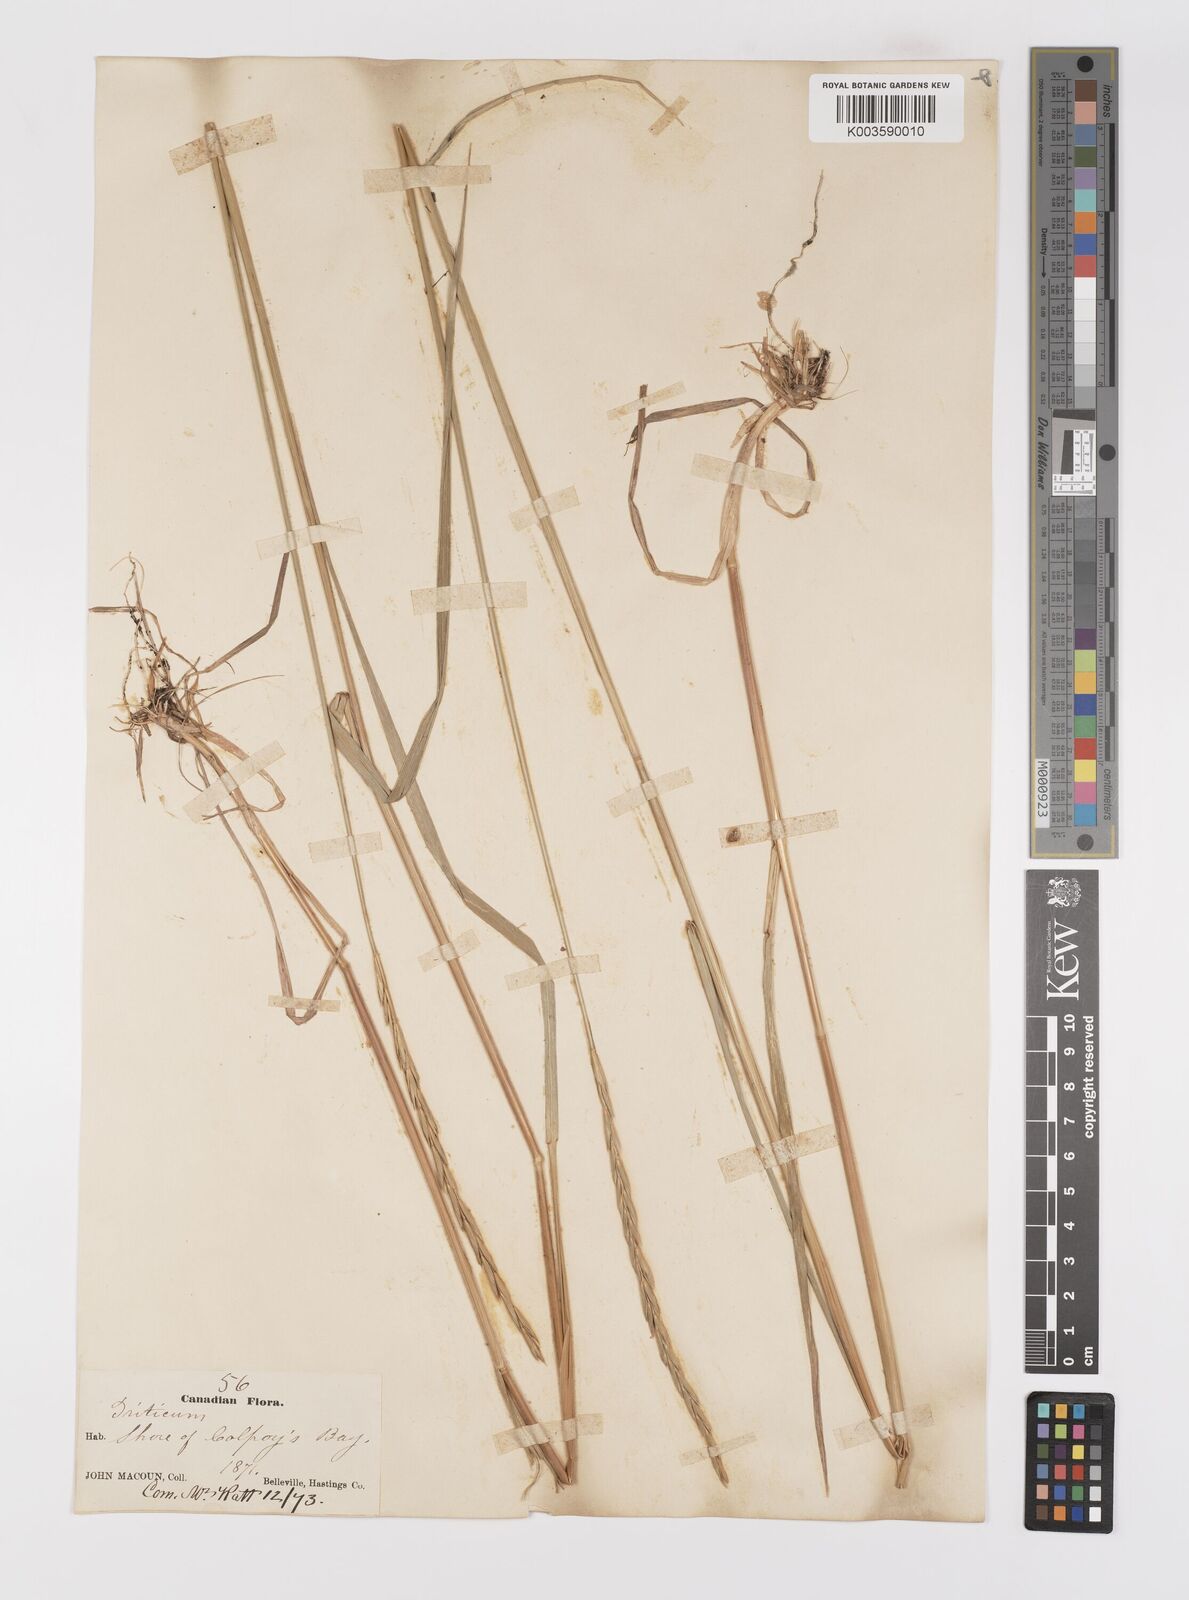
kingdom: Plantae
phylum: Tracheophyta
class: Liliopsida
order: Poales
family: Poaceae
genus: Elymus
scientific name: Elymus repens
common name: Quackgrass
